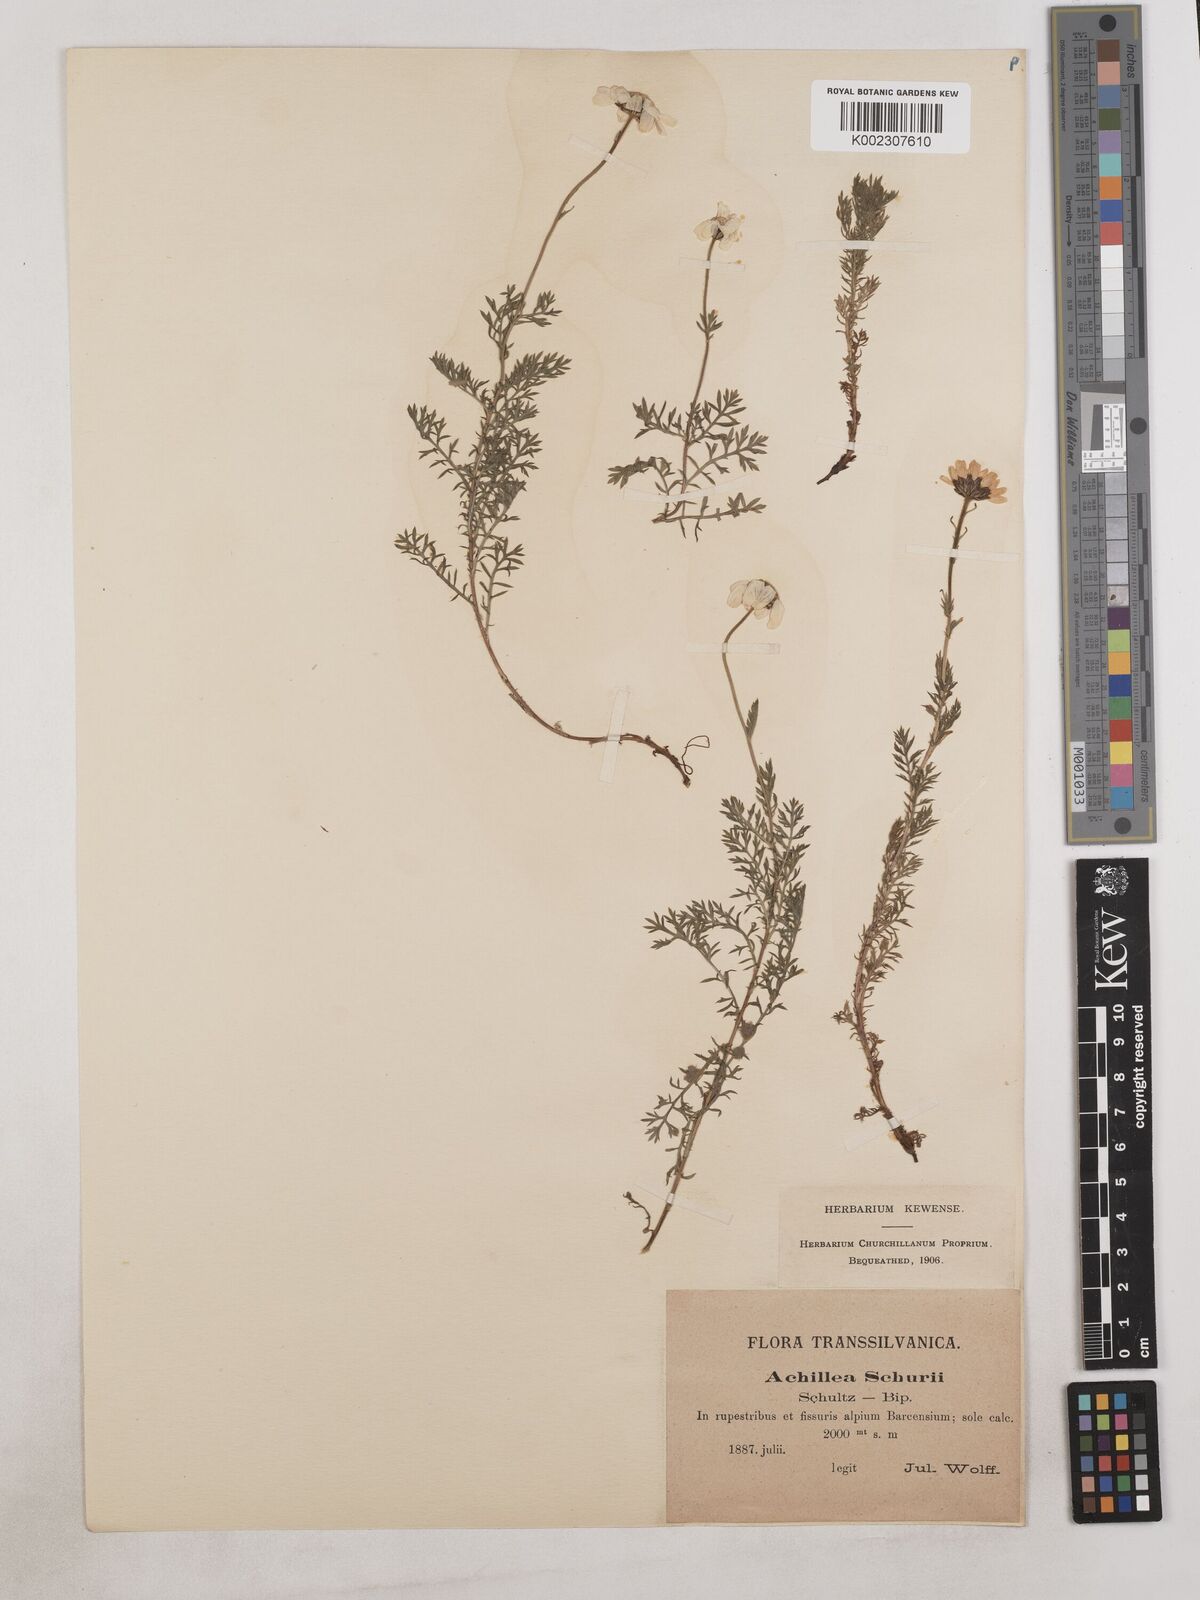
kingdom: Plantae
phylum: Tracheophyta
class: Magnoliopsida
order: Asterales
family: Asteraceae
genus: Achillea
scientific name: Achillea millefolium
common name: Yarrow
